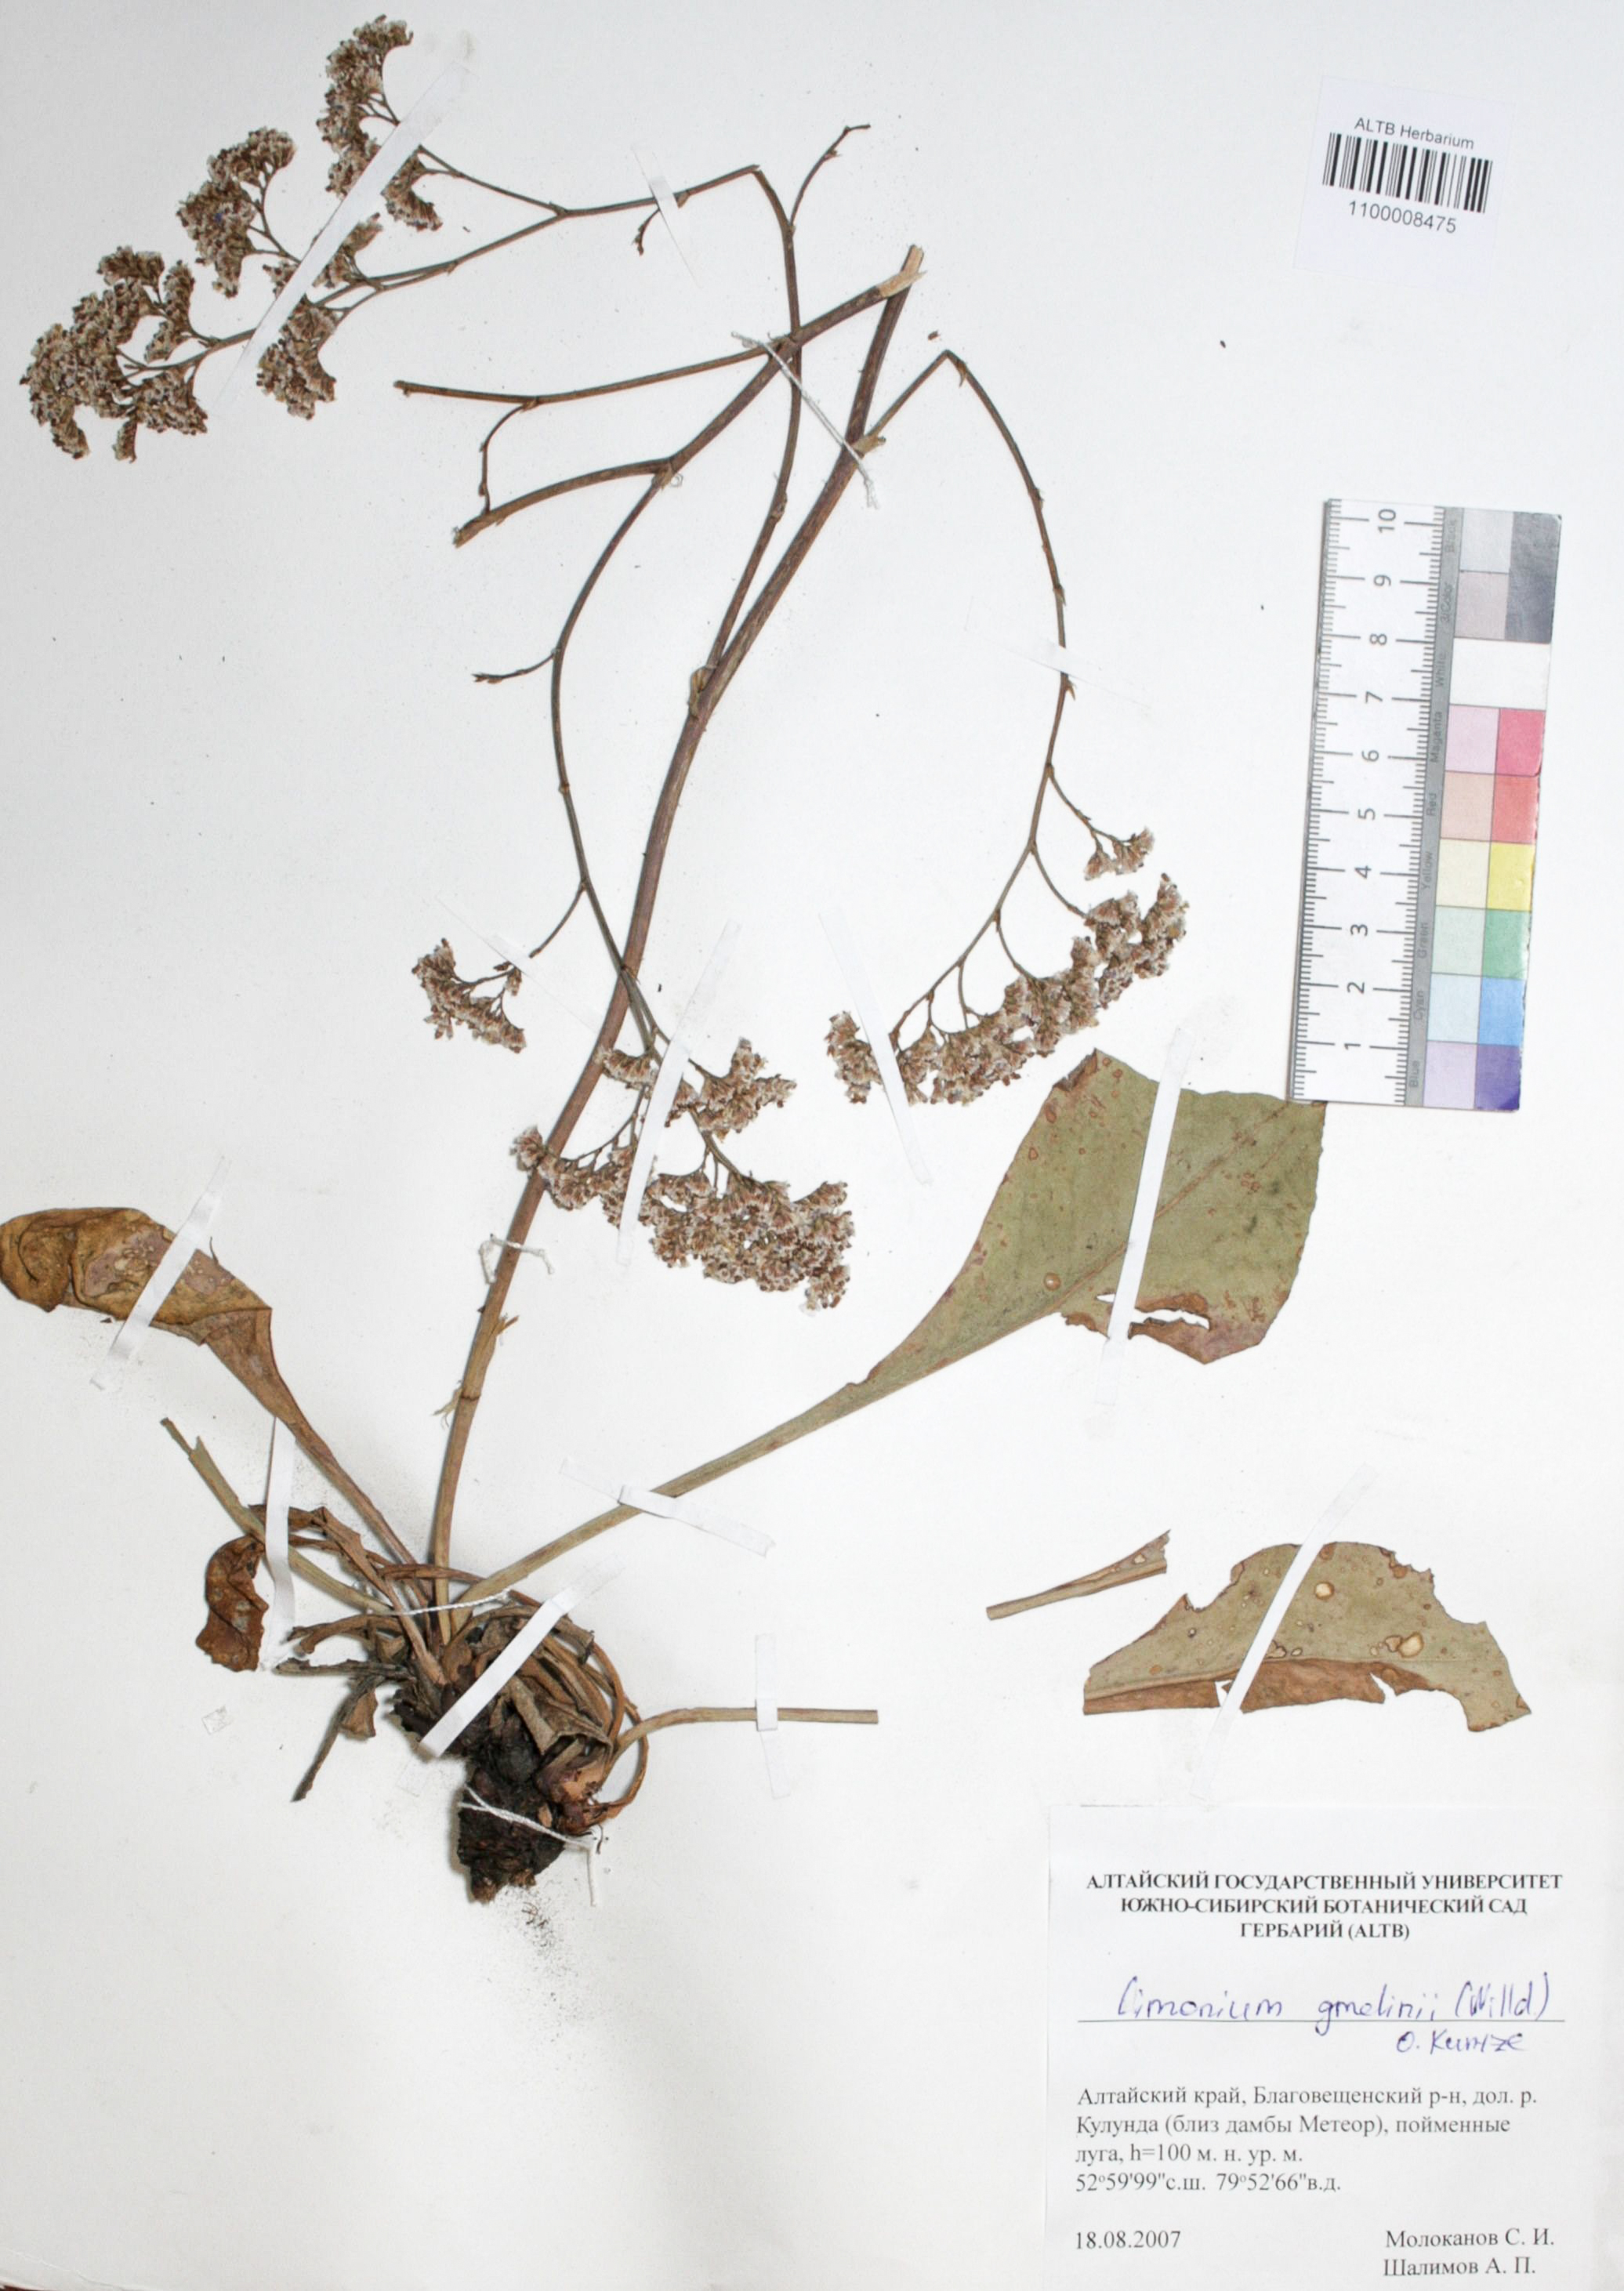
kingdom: Plantae
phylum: Tracheophyta
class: Magnoliopsida
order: Caryophyllales
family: Plumbaginaceae
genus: Limonium
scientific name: Limonium gmelini
